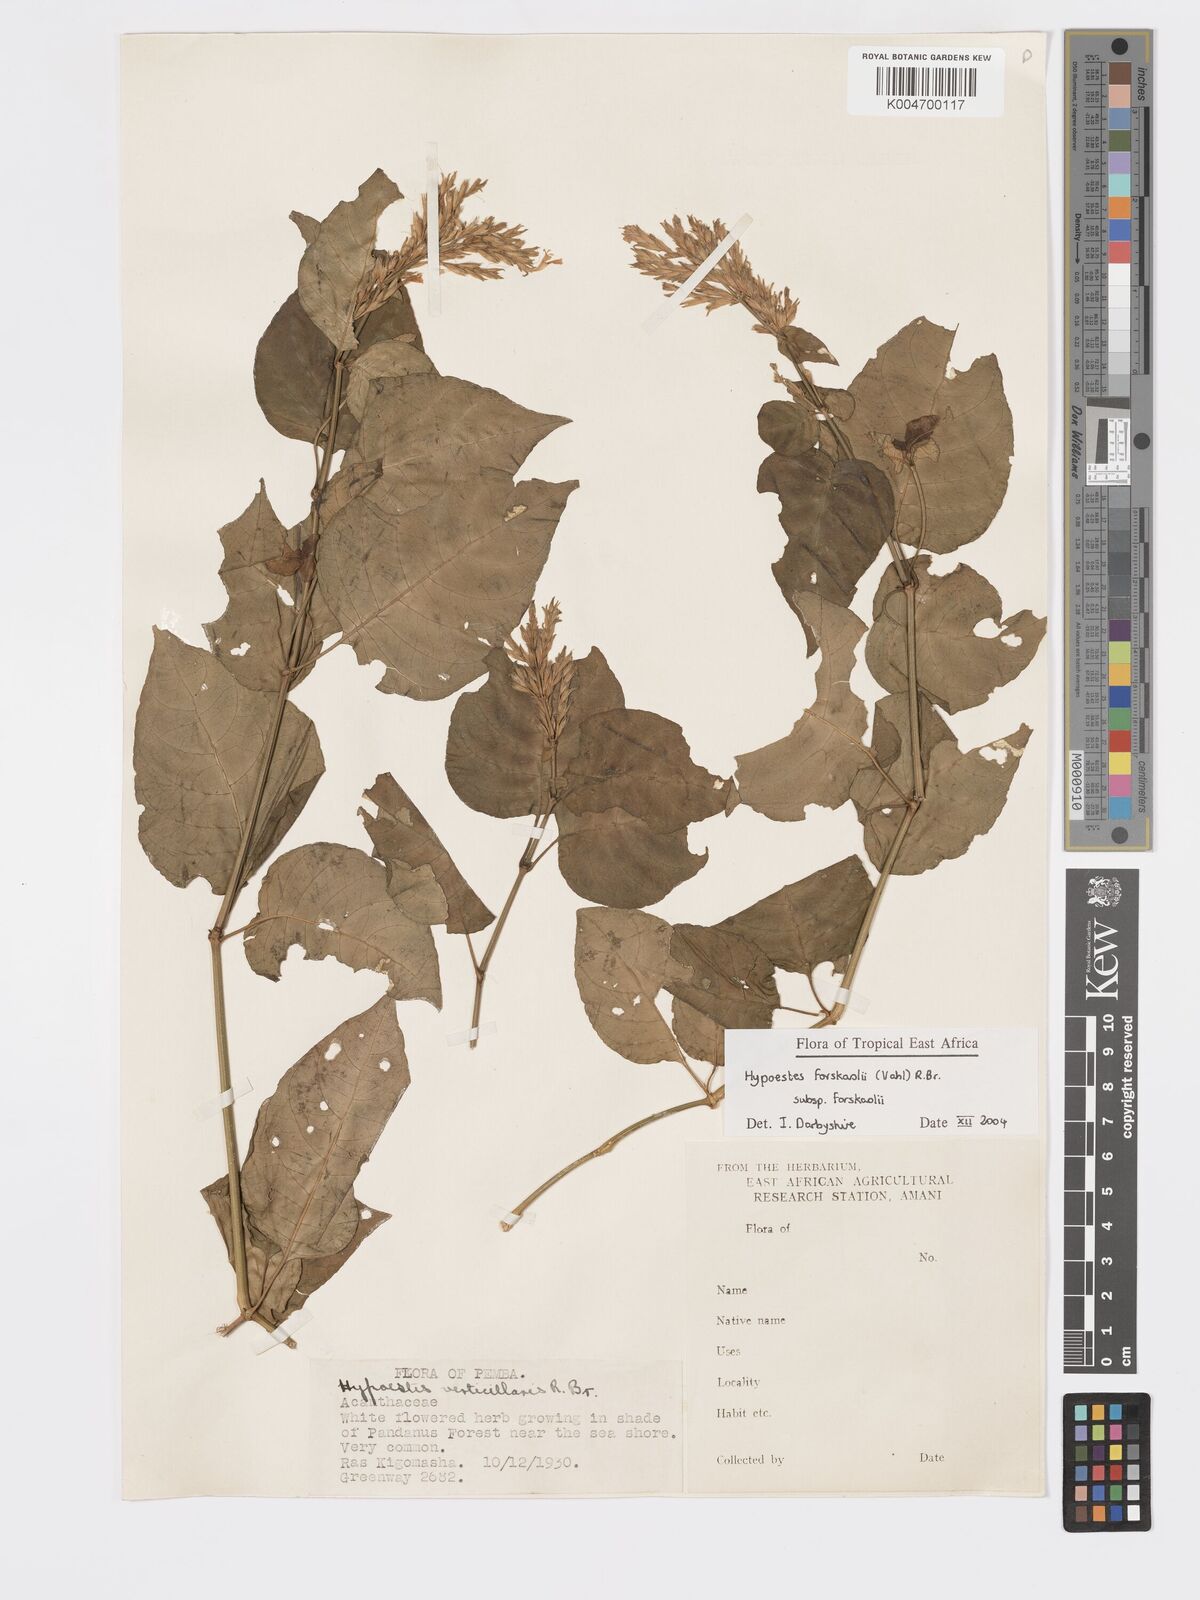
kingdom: Plantae
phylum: Tracheophyta
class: Magnoliopsida
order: Lamiales
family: Acanthaceae
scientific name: Acanthaceae
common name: Acanthaceae
